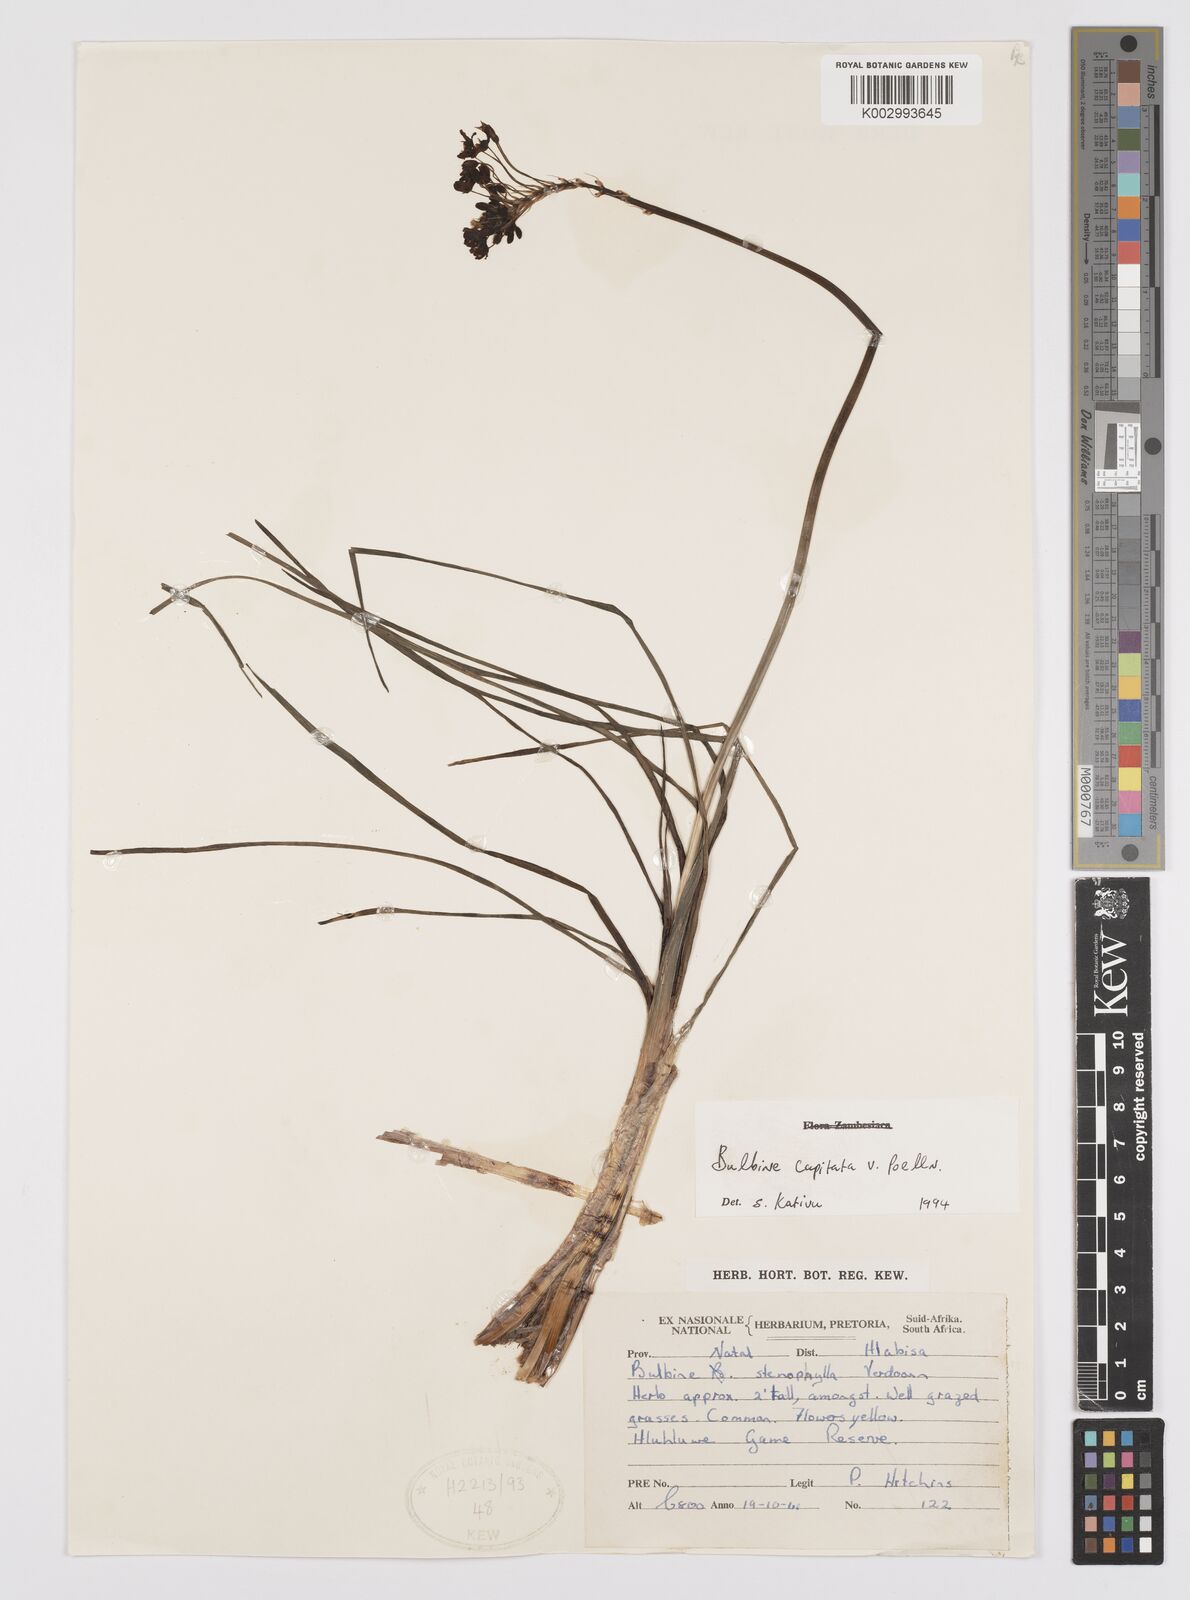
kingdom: Plantae
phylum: Tracheophyta
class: Liliopsida
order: Asparagales
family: Asphodelaceae
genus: Bulbine
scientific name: Bulbine capitata
